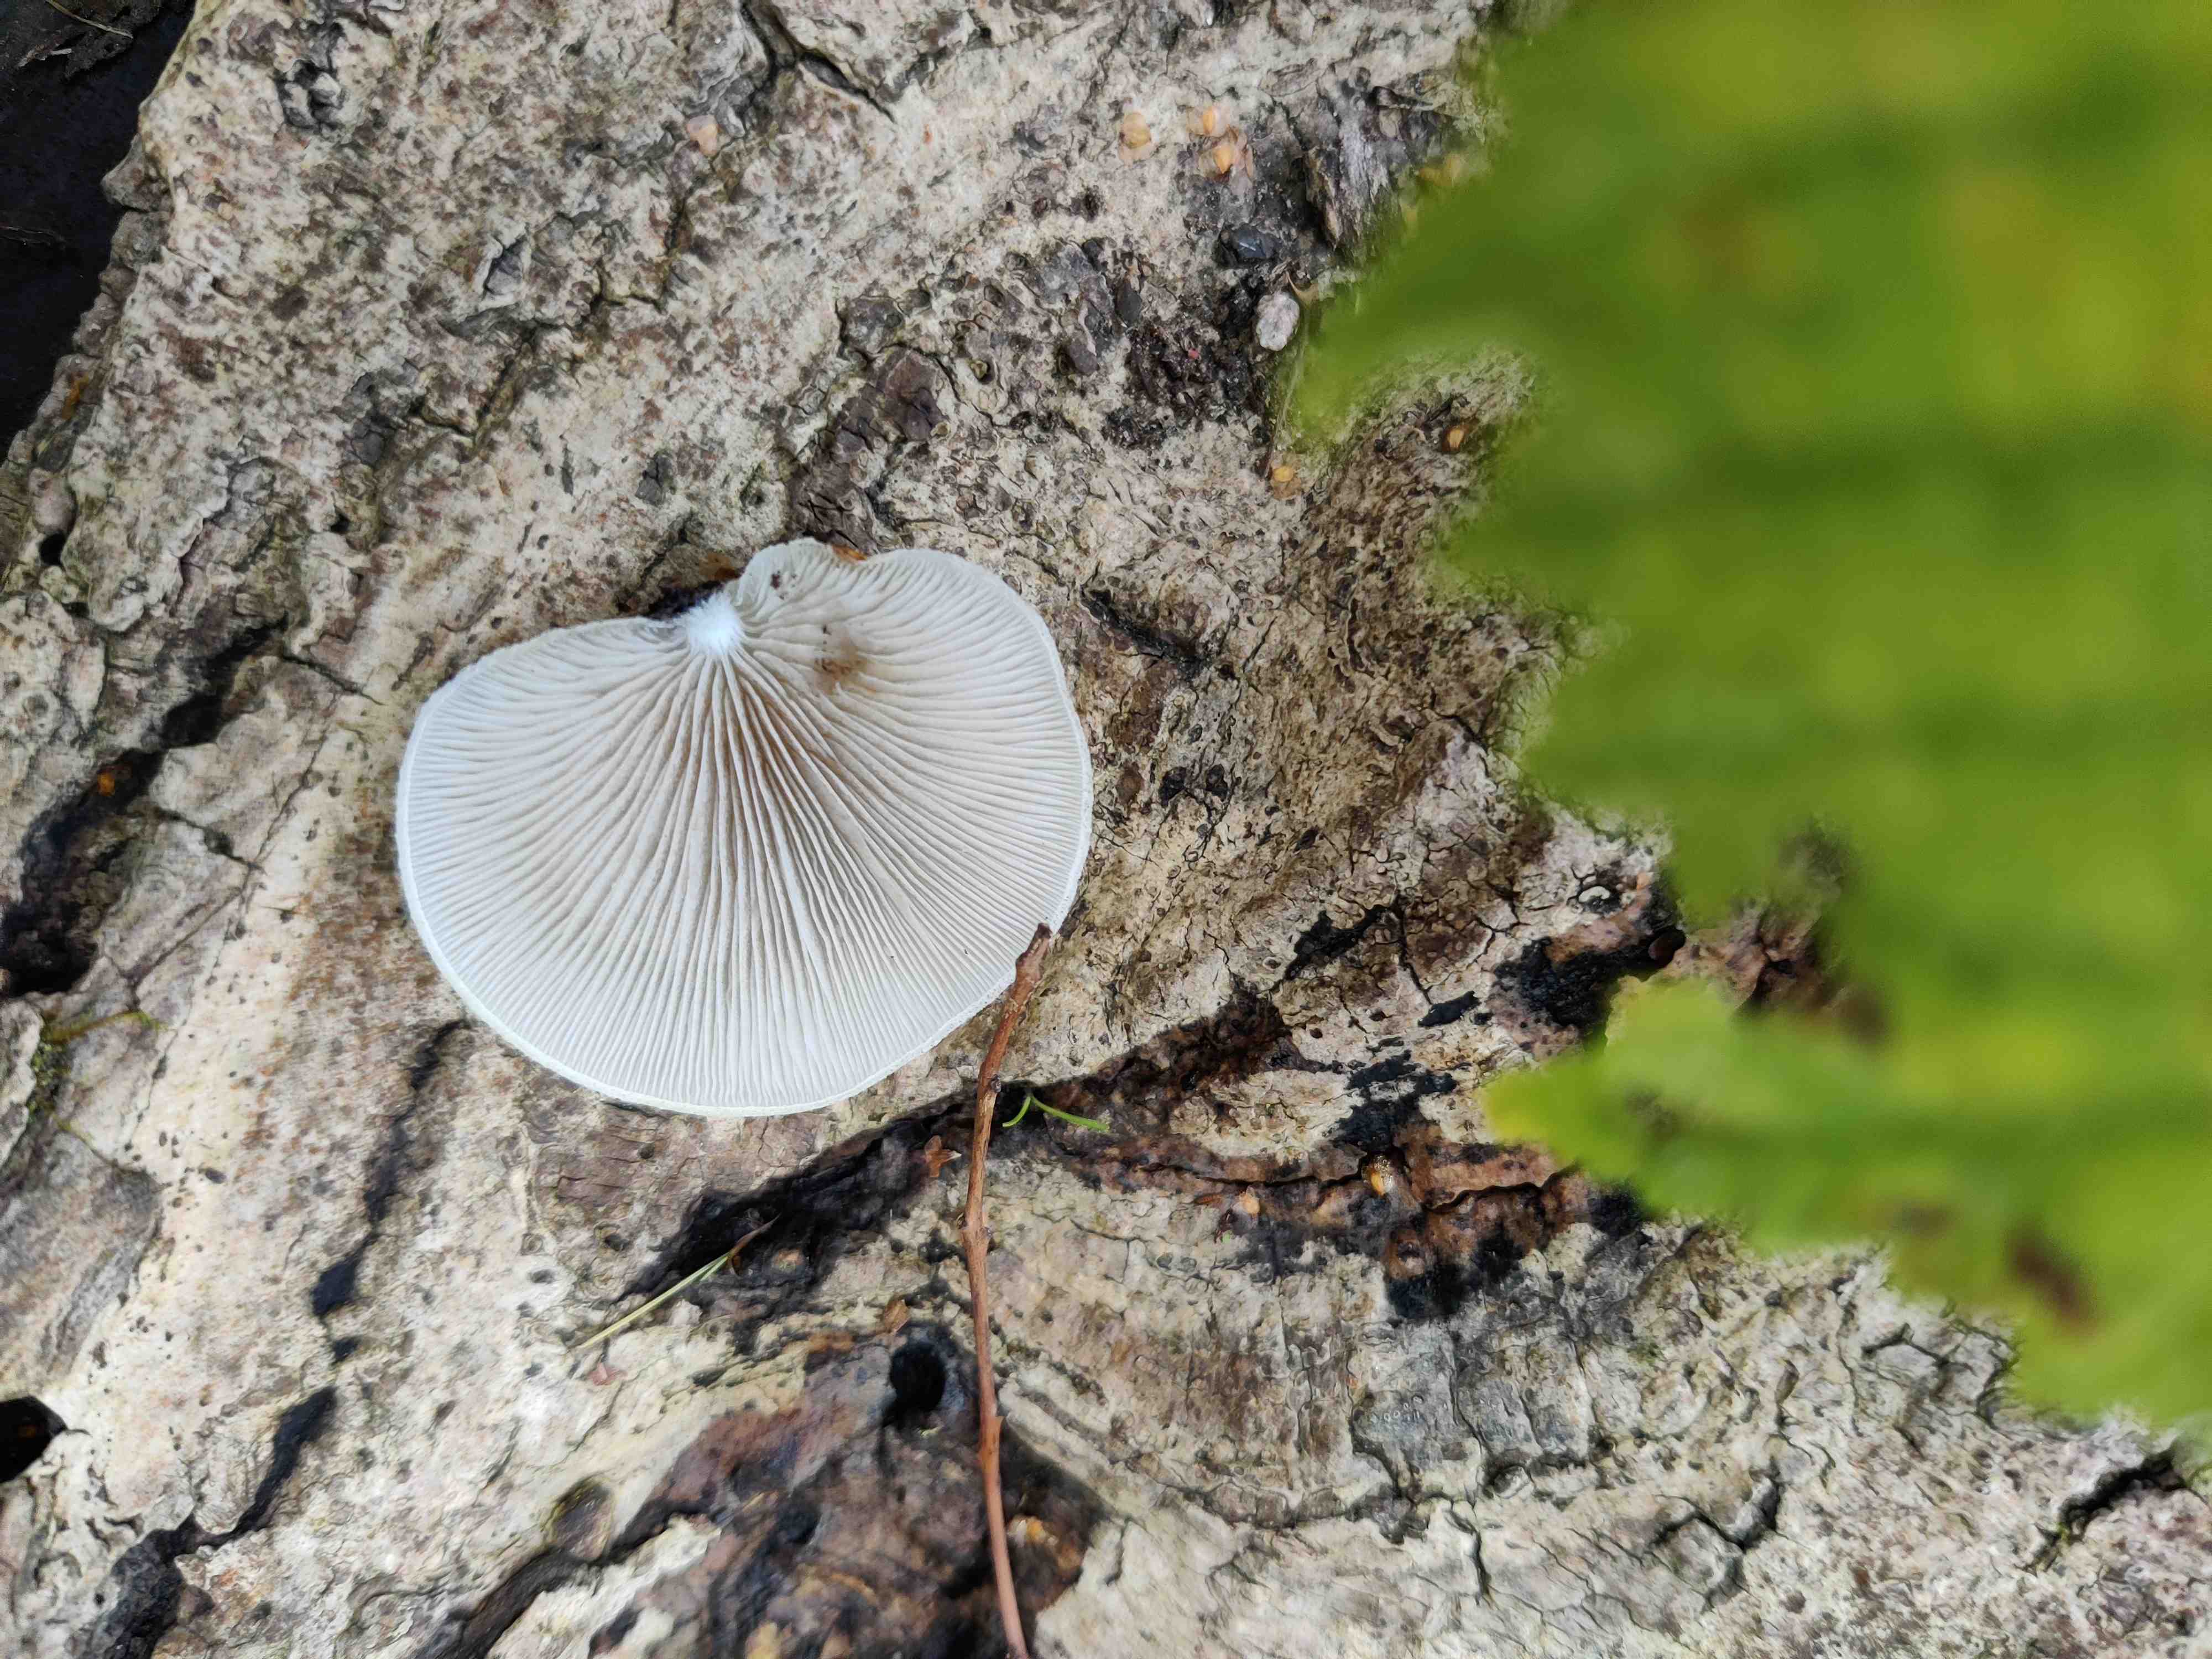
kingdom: Fungi
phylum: Basidiomycota
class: Agaricomycetes
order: Agaricales
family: Crepidotaceae
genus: Crepidotus
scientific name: Crepidotus mollis
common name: blød muslingesvamp
